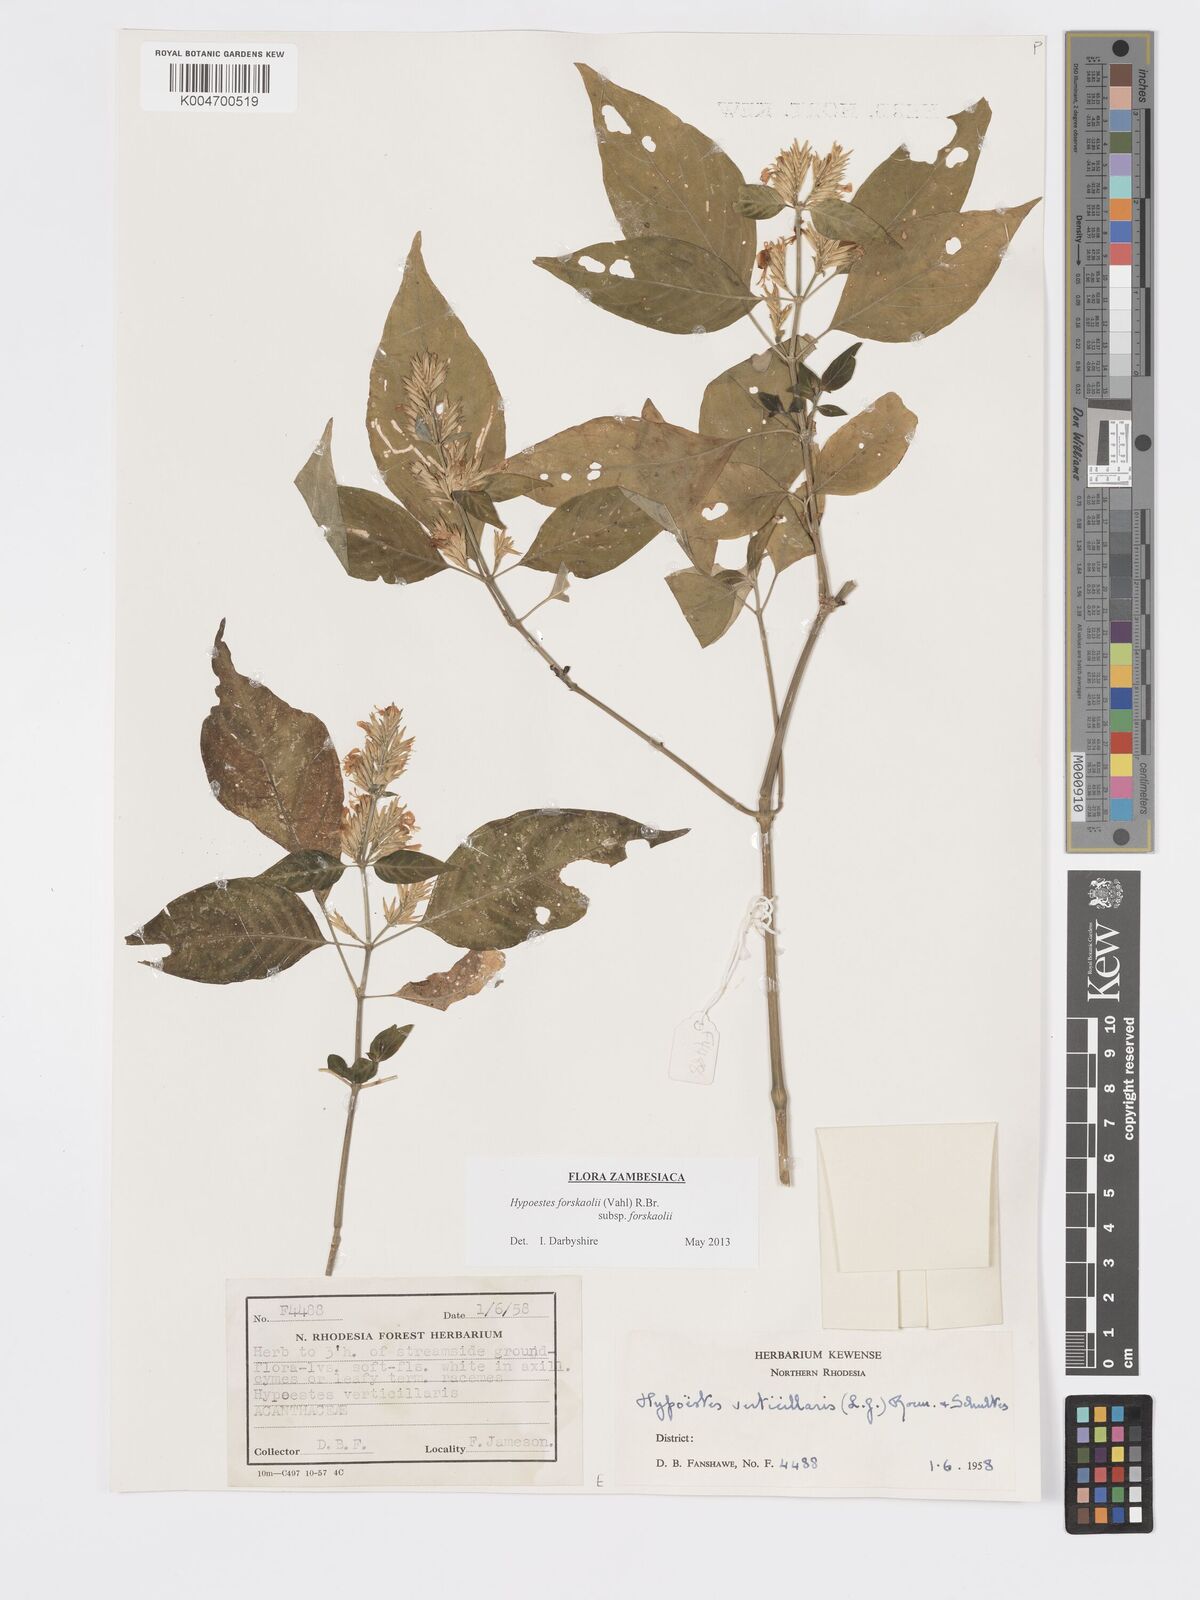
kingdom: Plantae
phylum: Tracheophyta
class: Magnoliopsida
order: Lamiales
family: Acanthaceae
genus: Hypoestes
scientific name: Hypoestes forskaolii
